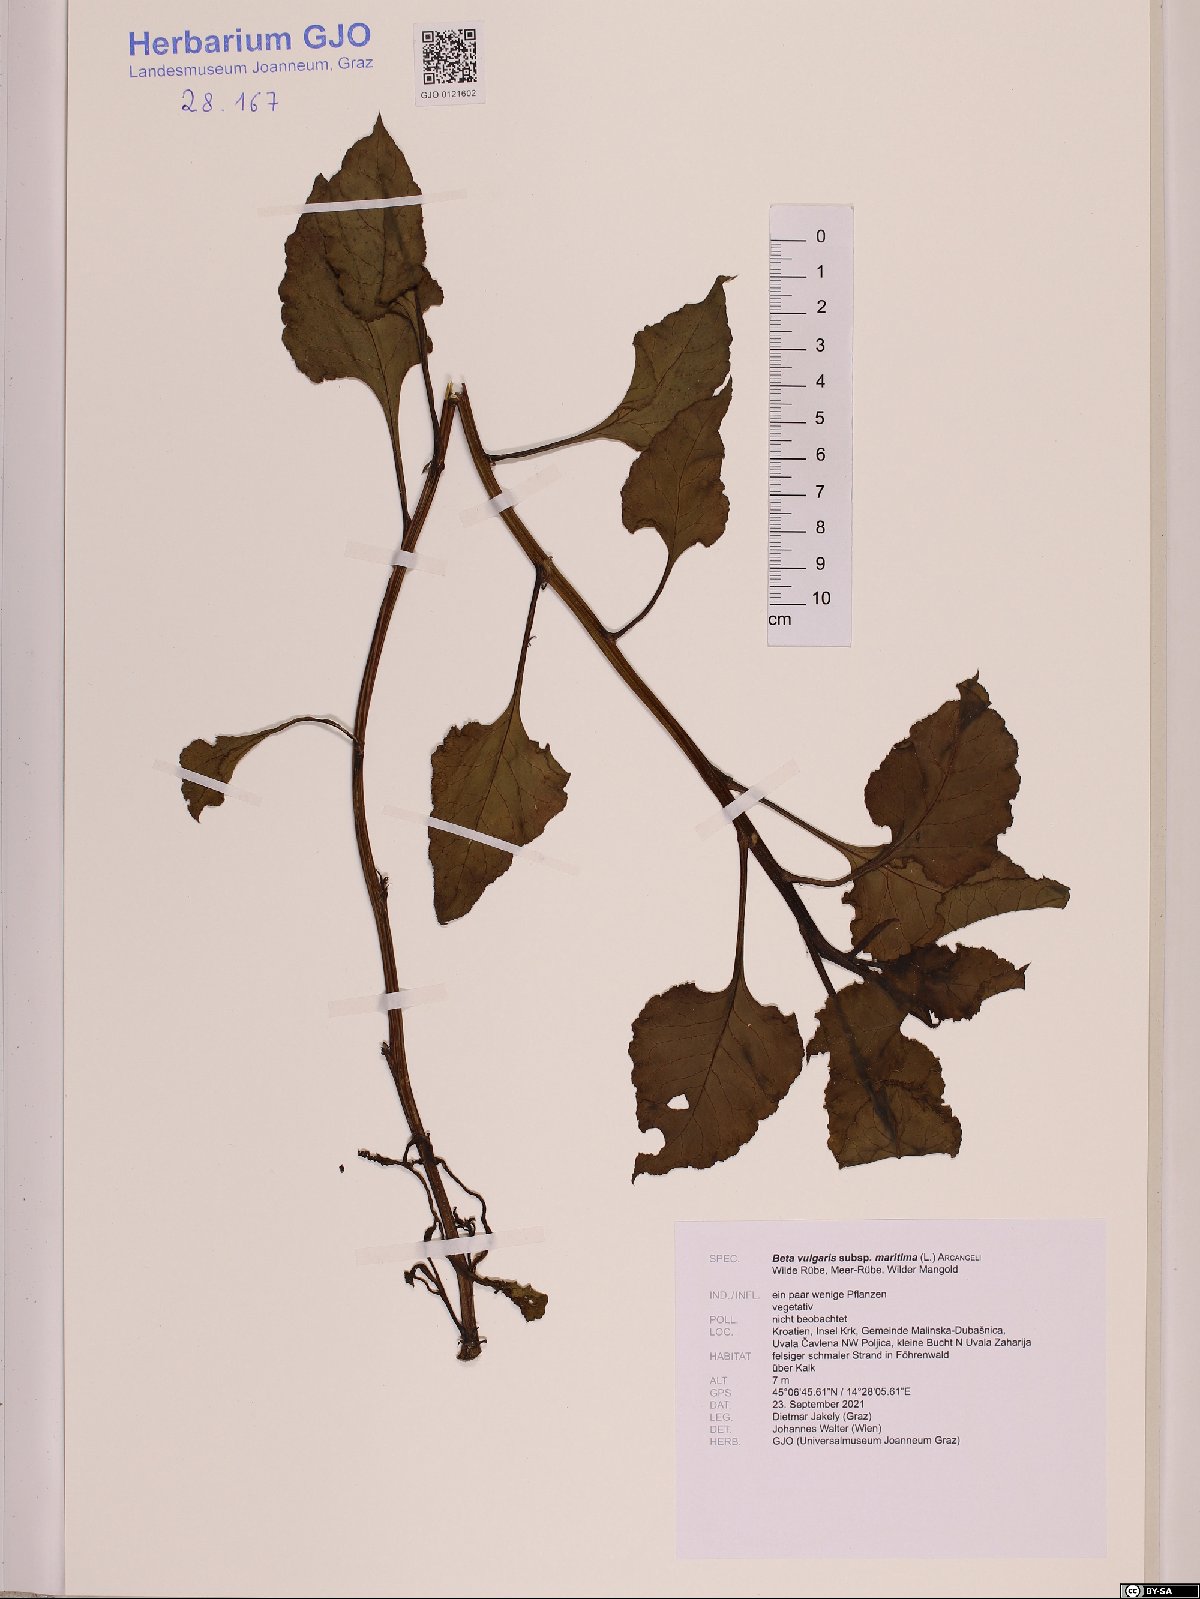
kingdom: Plantae
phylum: Tracheophyta
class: Magnoliopsida
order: Caryophyllales
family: Amaranthaceae
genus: Beta
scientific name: Beta maritima
